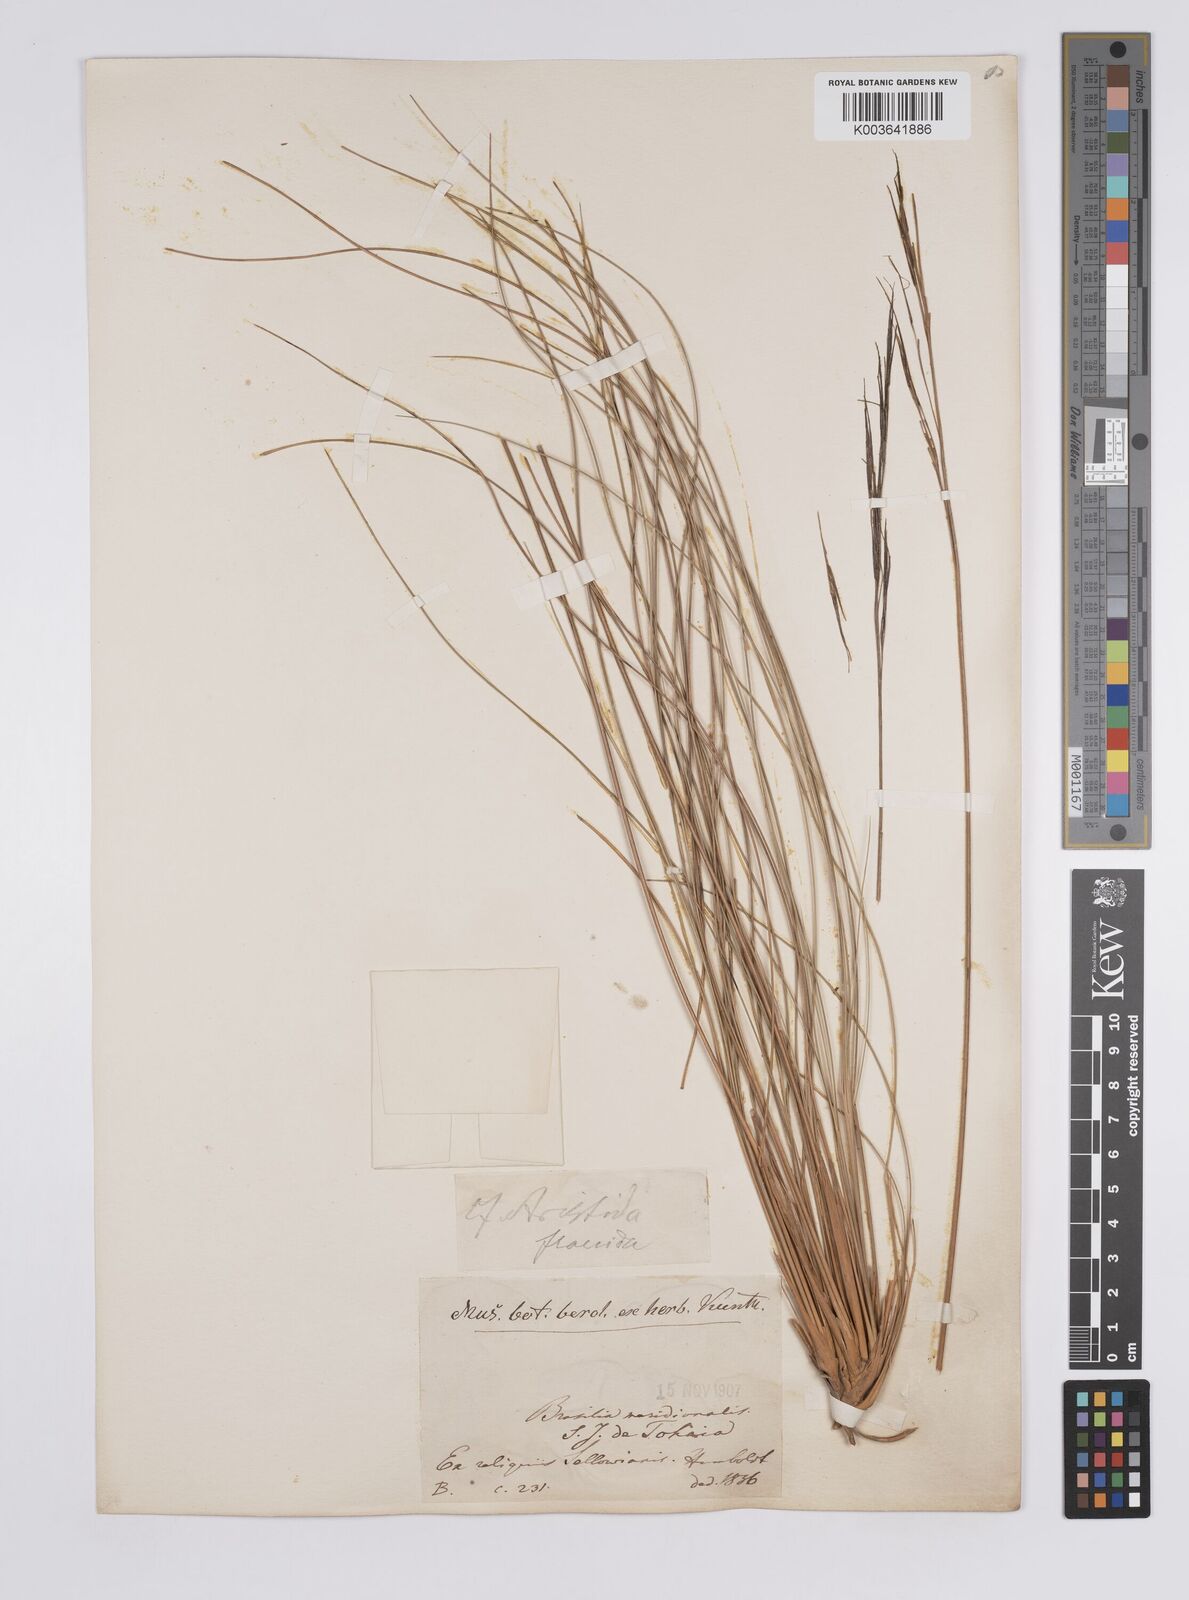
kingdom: Plantae
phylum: Tracheophyta
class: Liliopsida
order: Poales
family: Poaceae
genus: Aristida
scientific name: Aristida pallens
